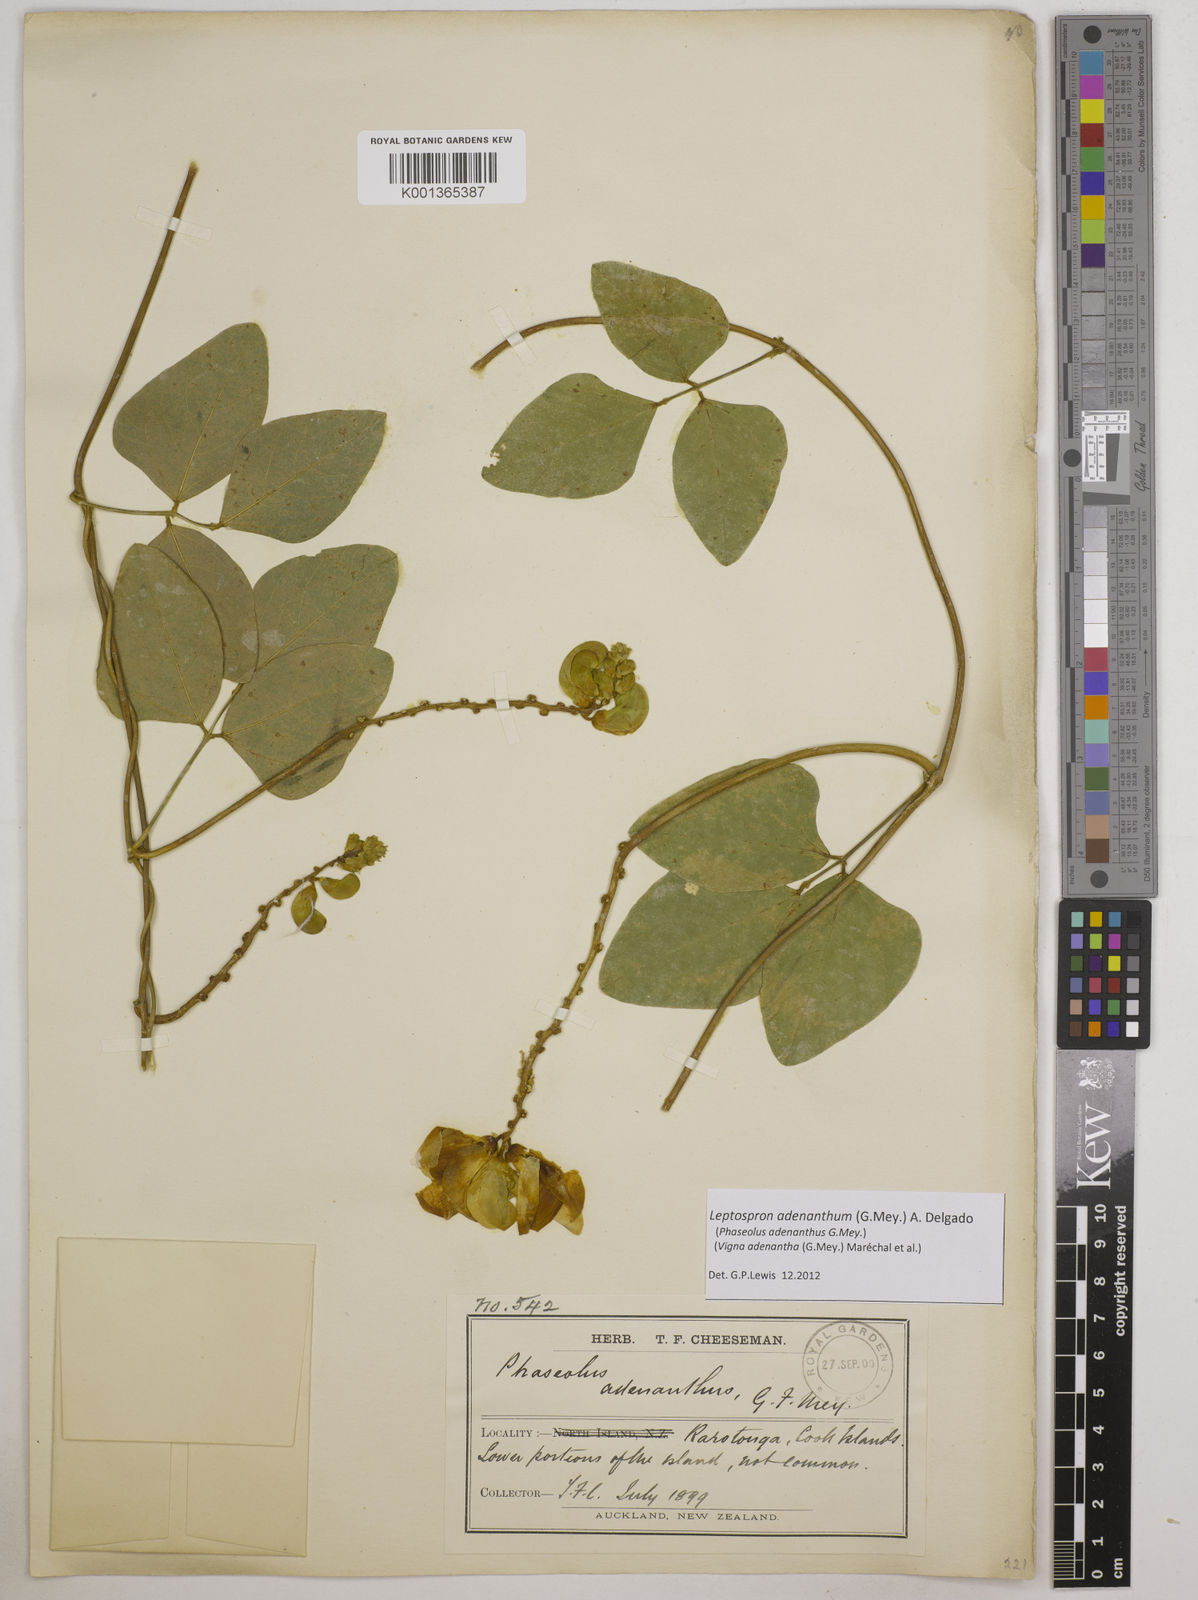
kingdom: Plantae
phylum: Tracheophyta
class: Magnoliopsida
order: Fabales
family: Fabaceae
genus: Leptospron
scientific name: Leptospron adenanthum
